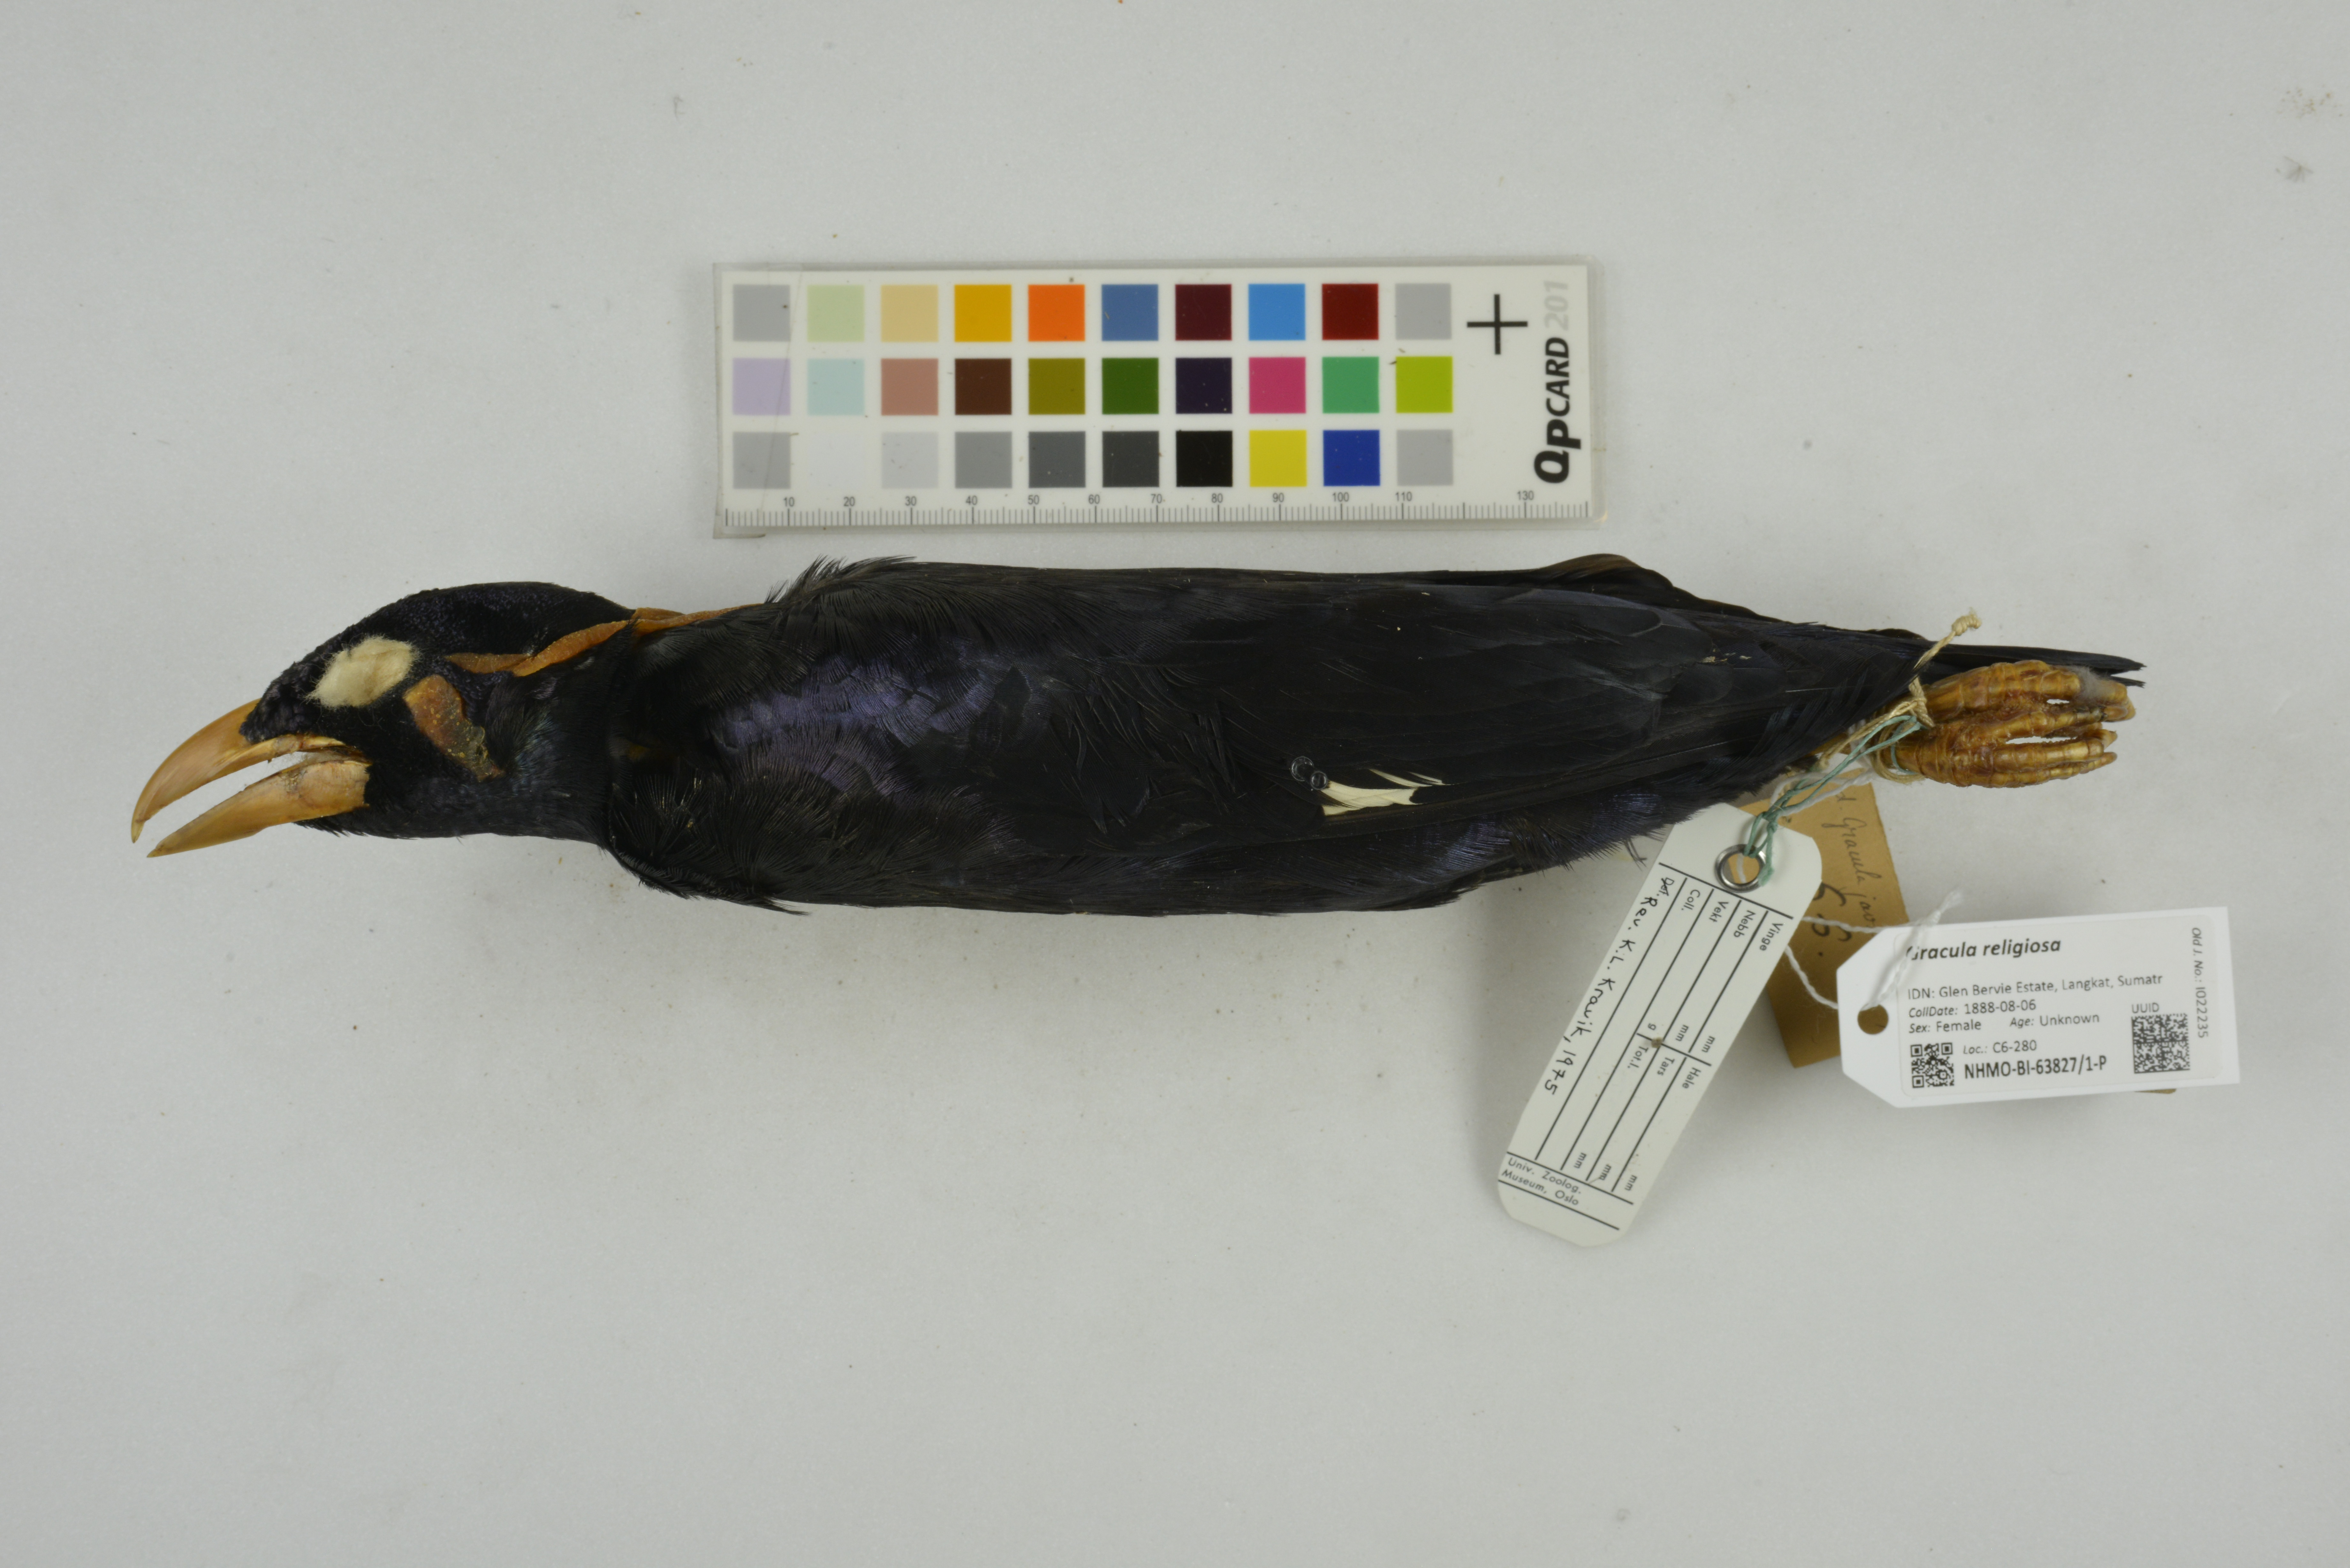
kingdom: Animalia
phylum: Chordata
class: Aves
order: Passeriformes
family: Sturnidae
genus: Gracula
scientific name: Gracula religiosa
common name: Common hill myna
